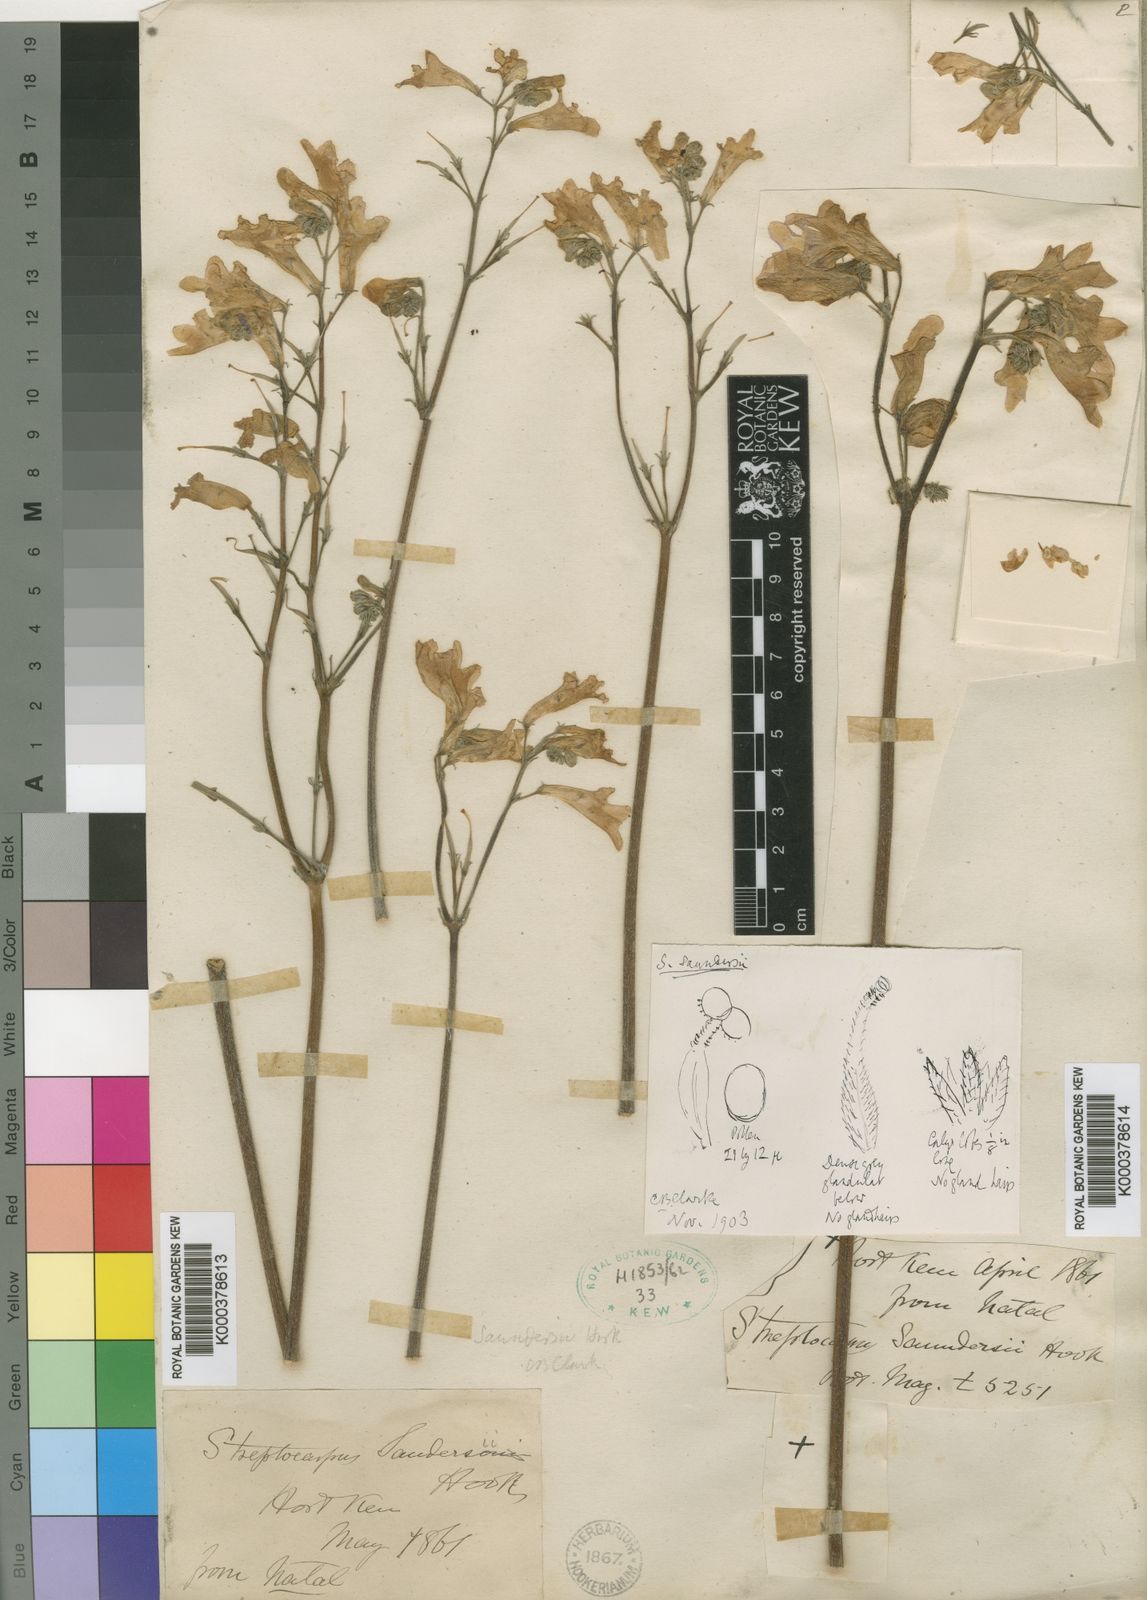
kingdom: Plantae
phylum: Tracheophyta
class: Magnoliopsida
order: Lamiales
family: Gesneriaceae
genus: Streptocarpus
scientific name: Streptocarpus saundersii
